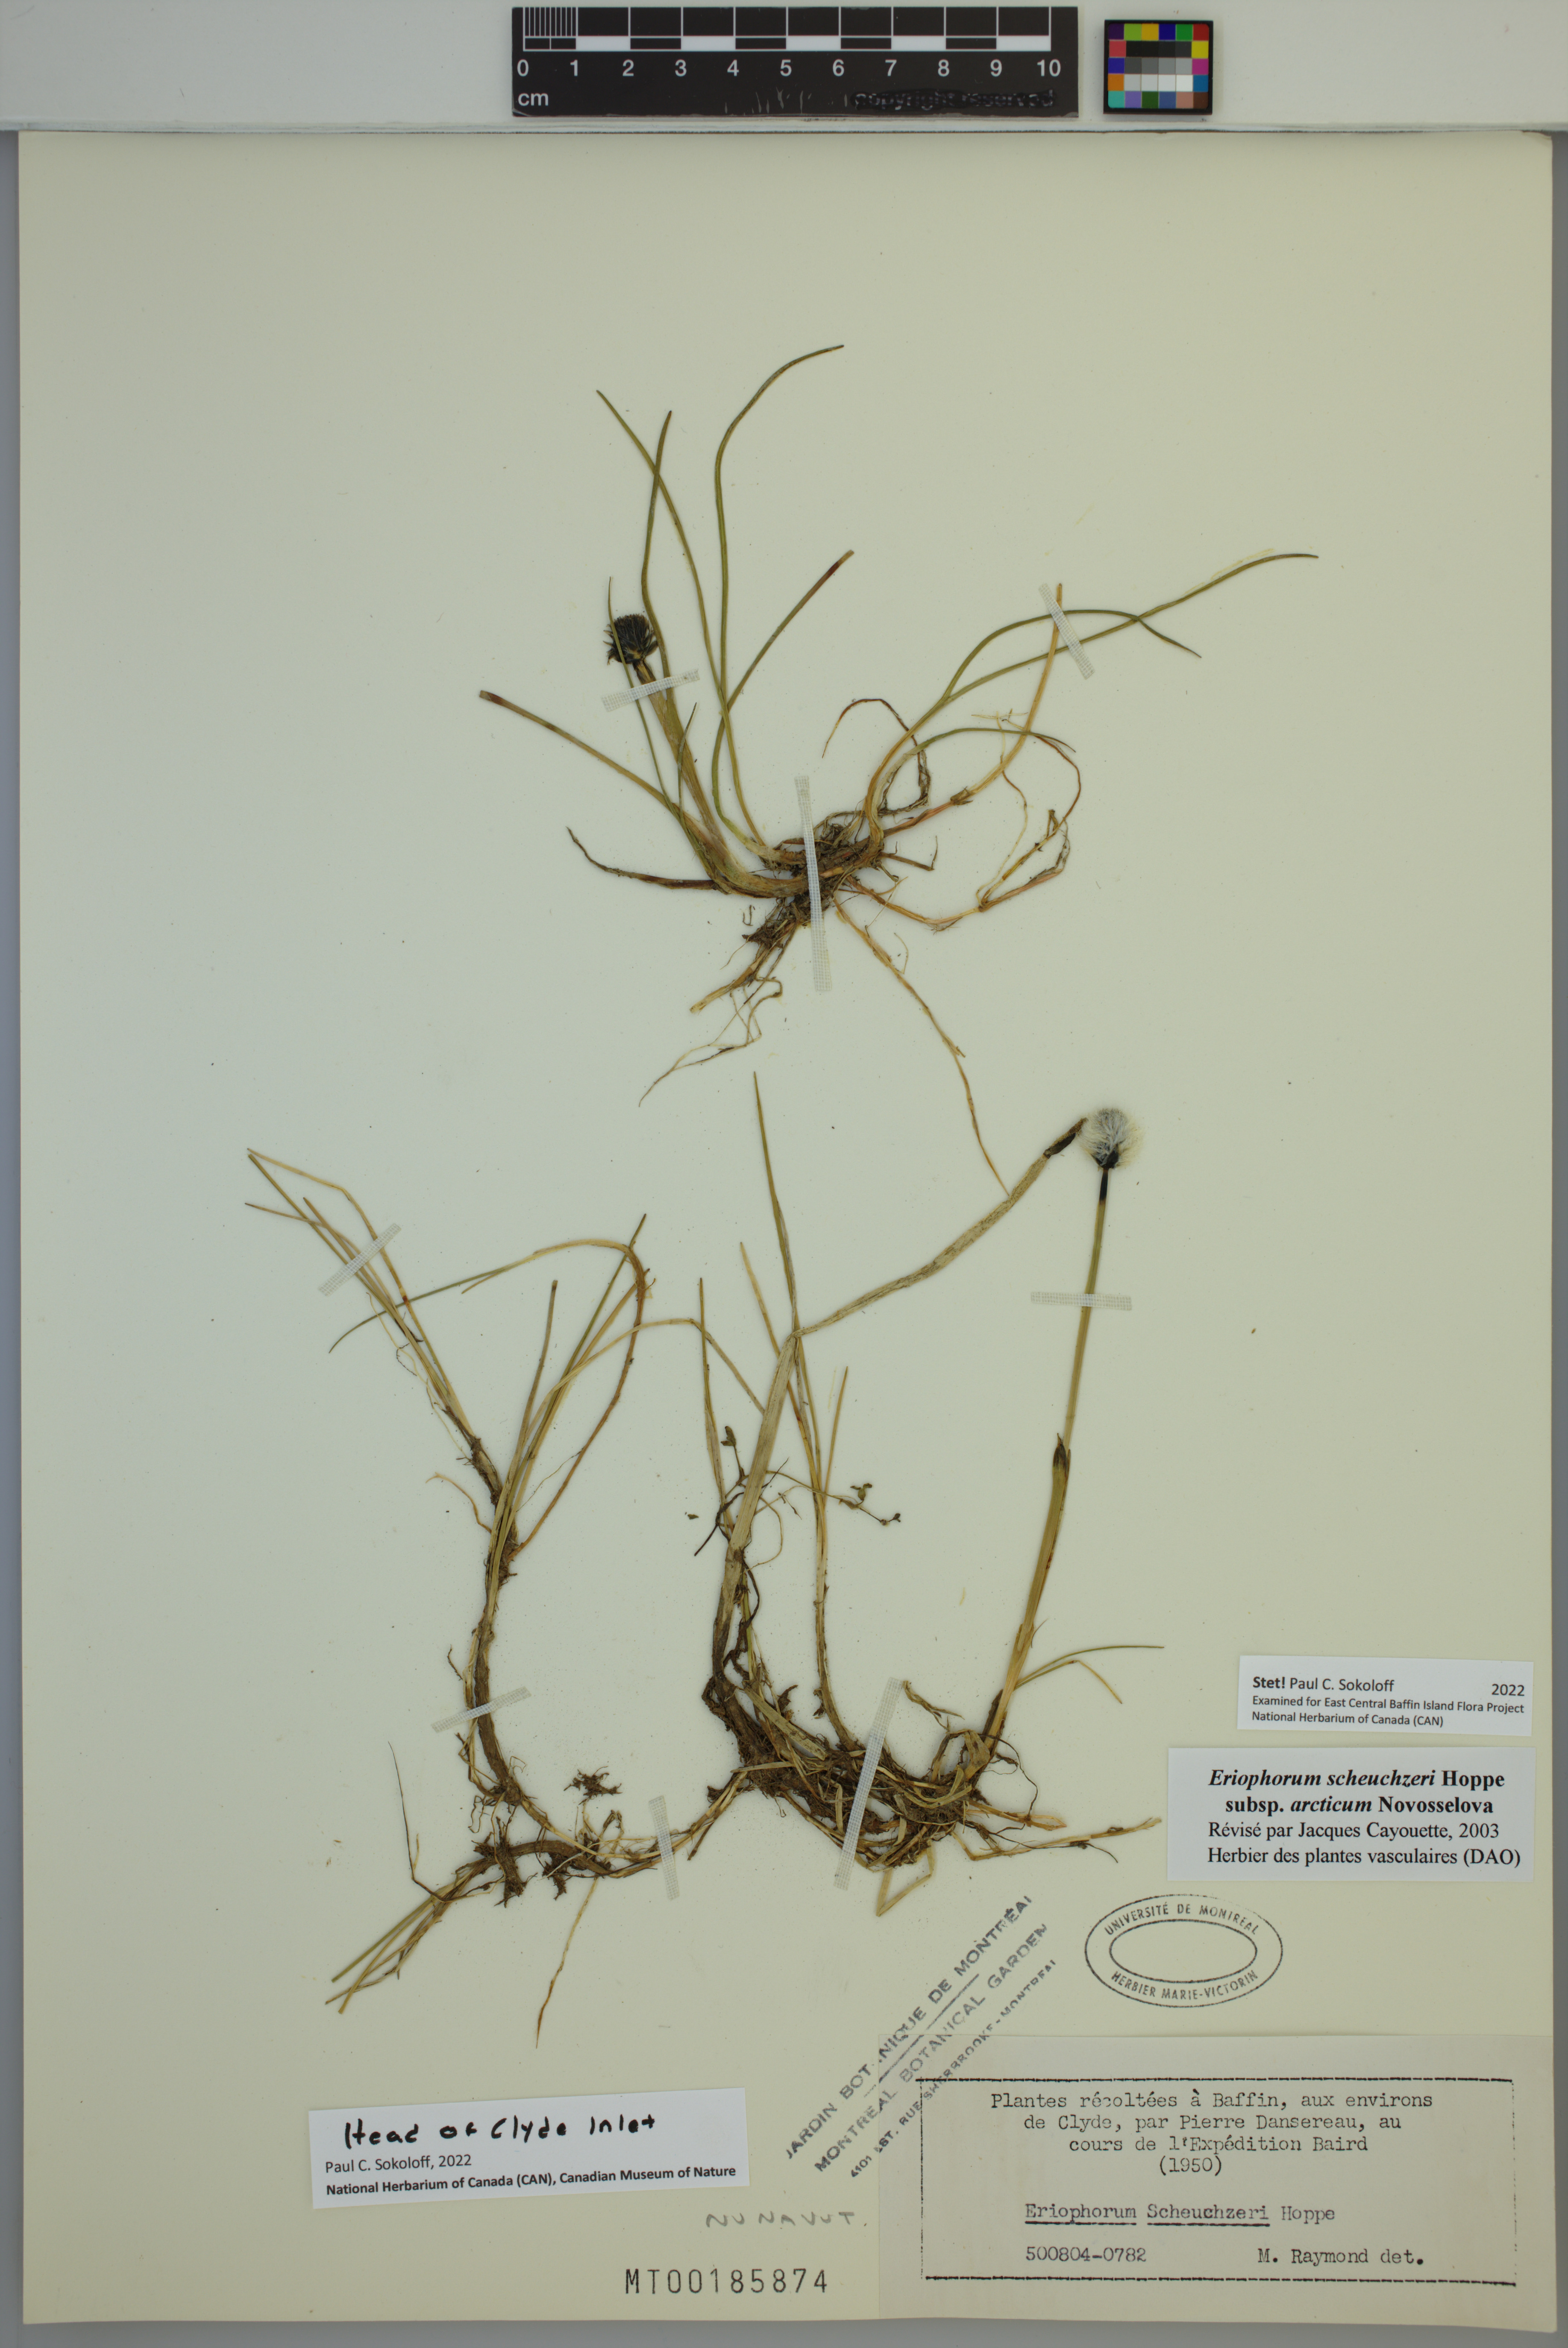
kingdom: Plantae
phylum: Tracheophyta
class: Liliopsida
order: Poales
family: Cyperaceae
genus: Eriophorum
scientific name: Eriophorum scheuchzeri
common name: Scheuchzer's cottongrass
